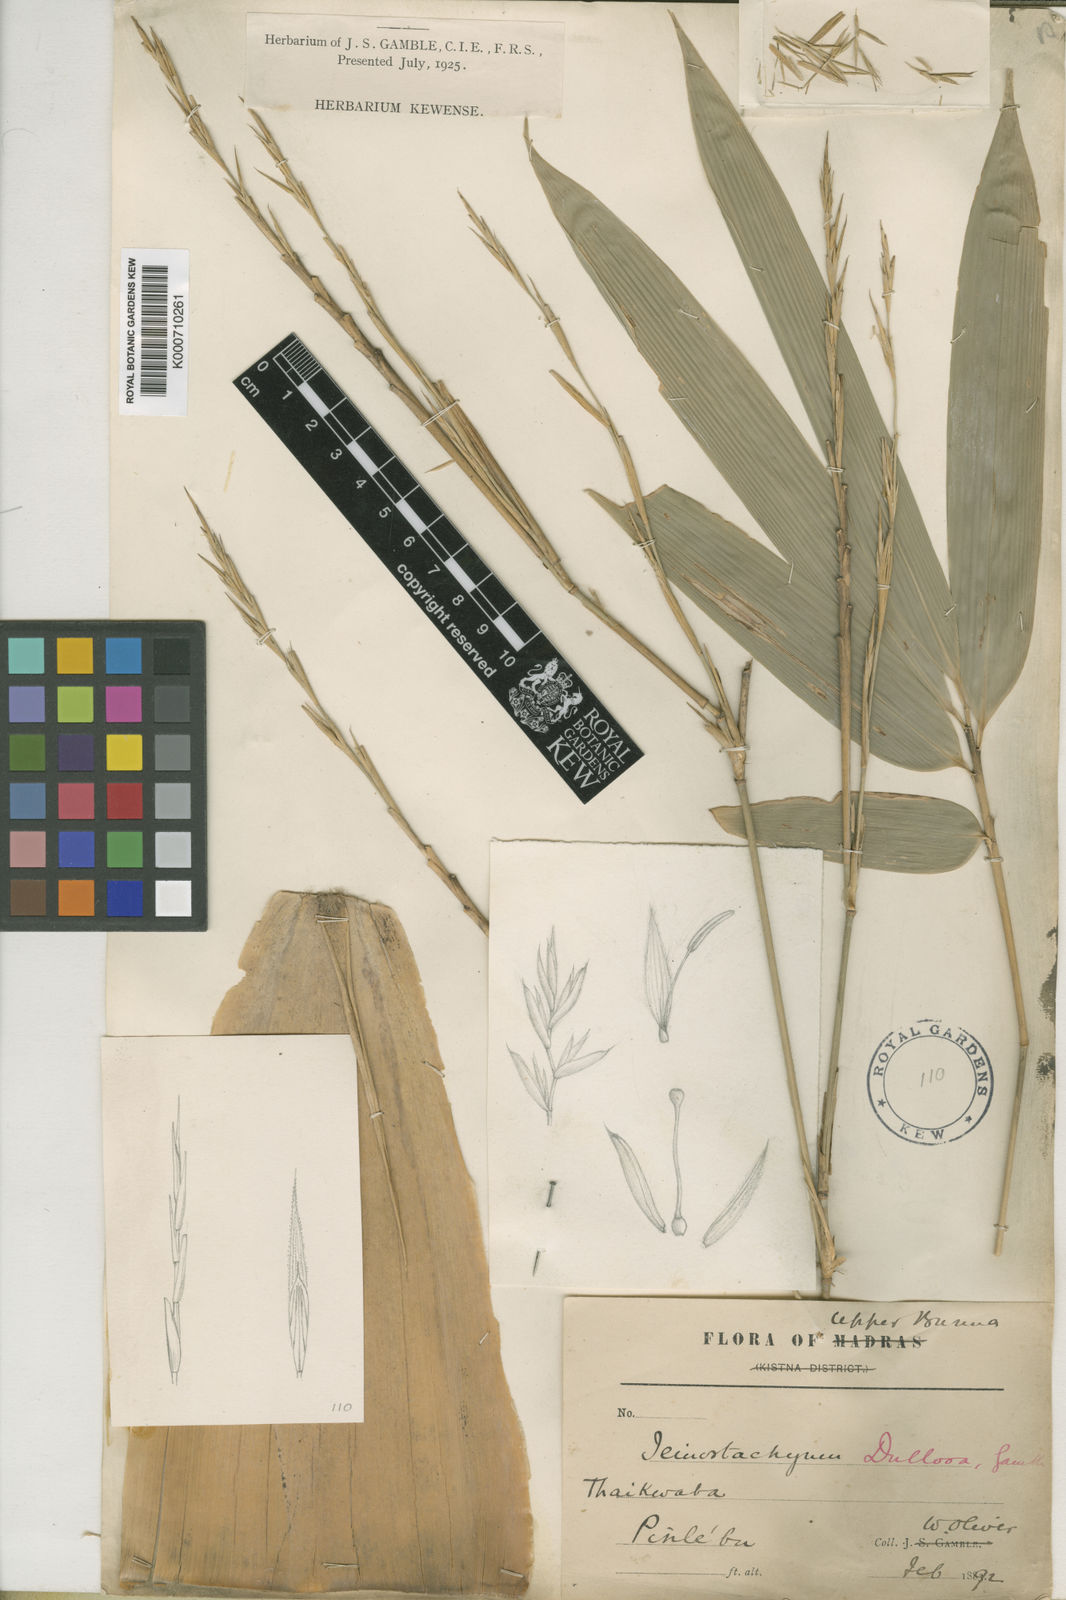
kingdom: Plantae
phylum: Tracheophyta
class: Liliopsida
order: Poales
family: Poaceae
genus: Schizostachyum
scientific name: Schizostachyum dullooa
